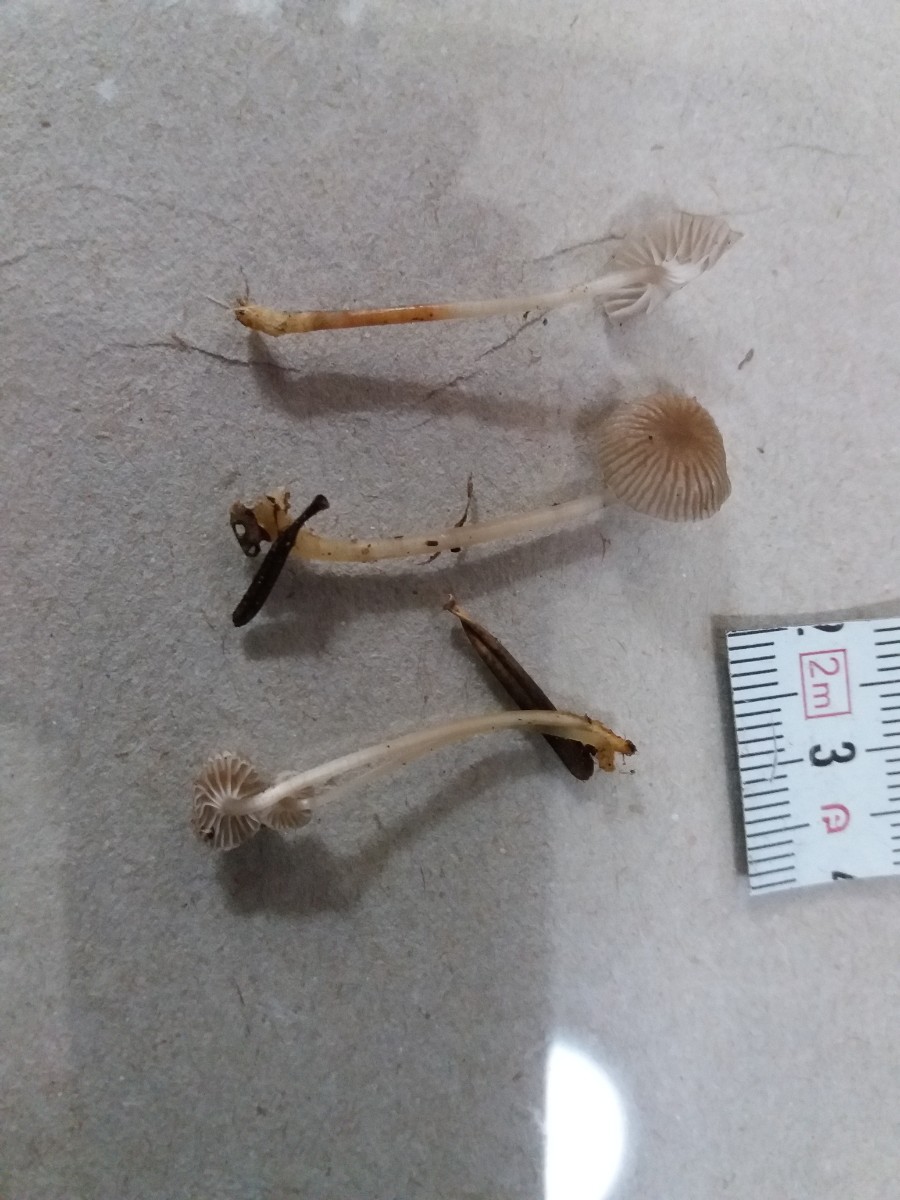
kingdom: Fungi
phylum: Basidiomycota
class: Agaricomycetes
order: Agaricales
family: Mycenaceae
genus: Mycena
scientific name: Mycena vulgaris
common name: klæbrig huesvamp
